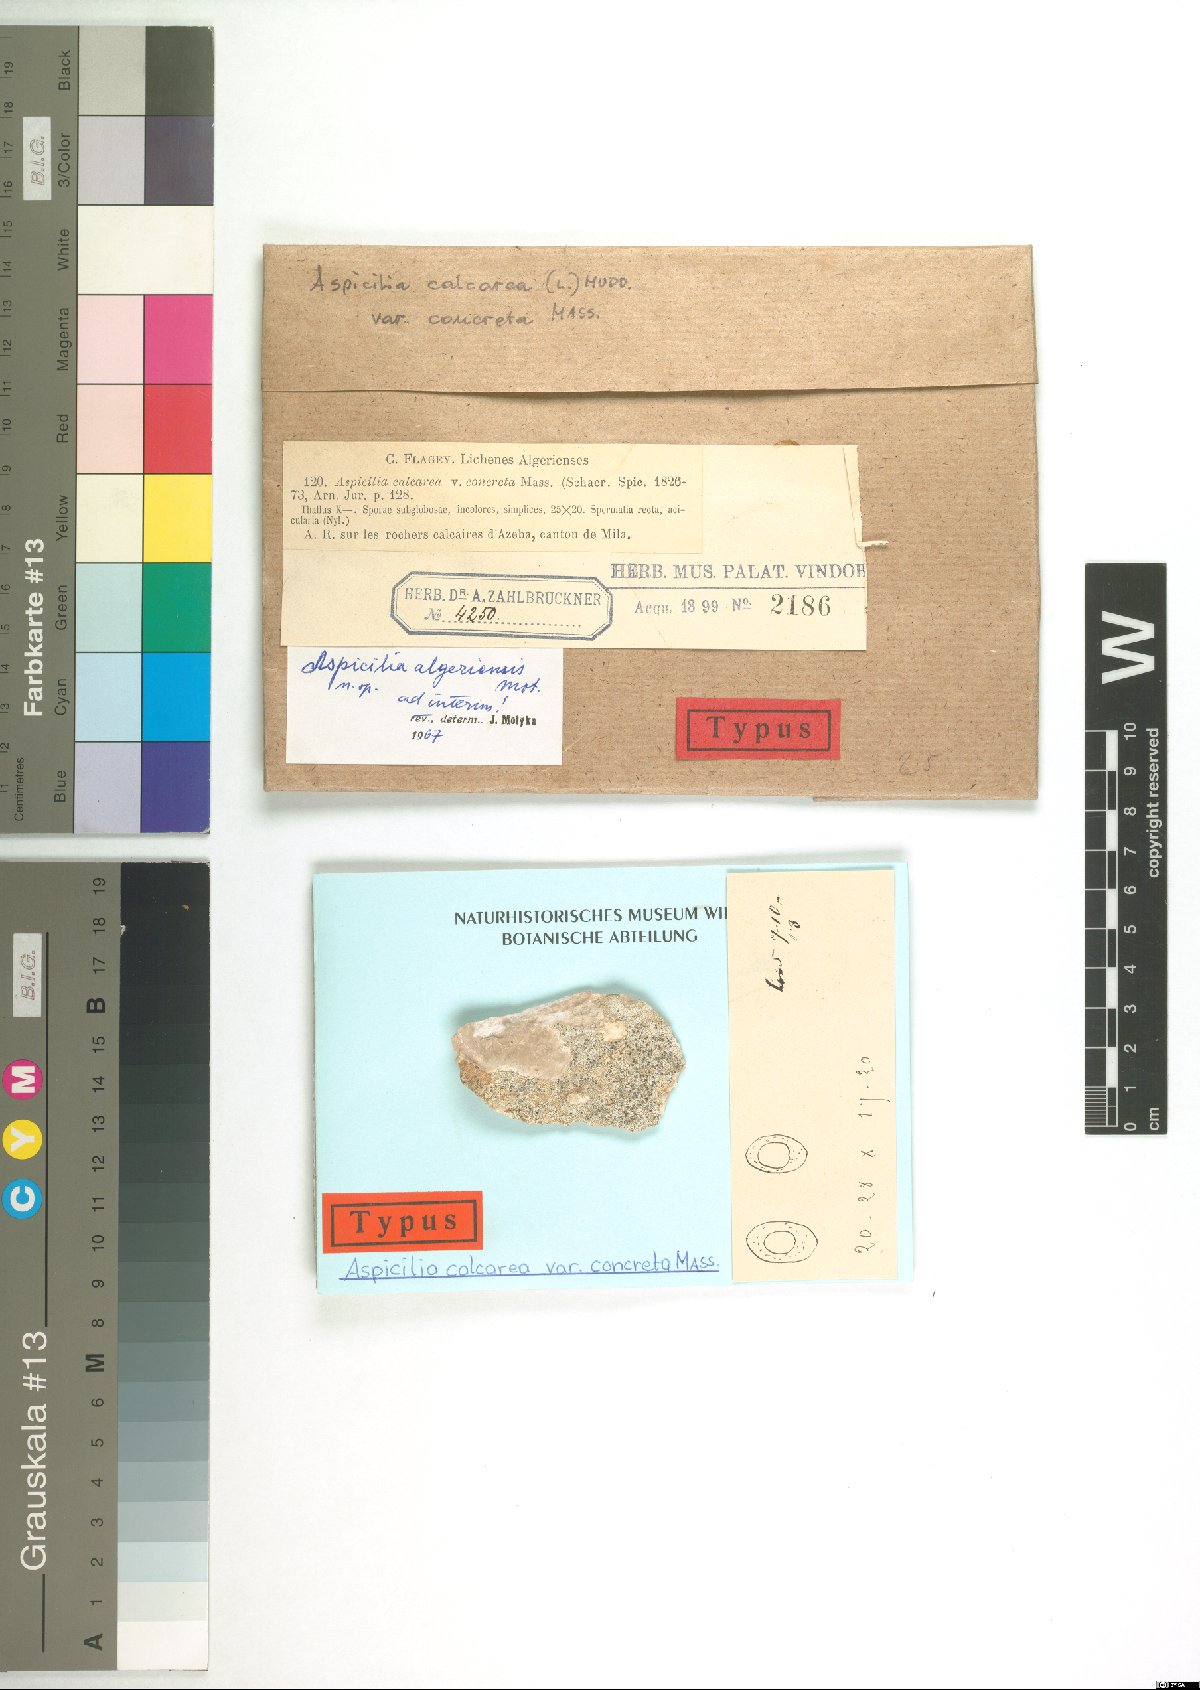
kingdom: Fungi
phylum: Ascomycota
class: Lecanoromycetes
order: Pertusariales
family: Megasporaceae
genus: Circinaria
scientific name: Circinaria calcarea
